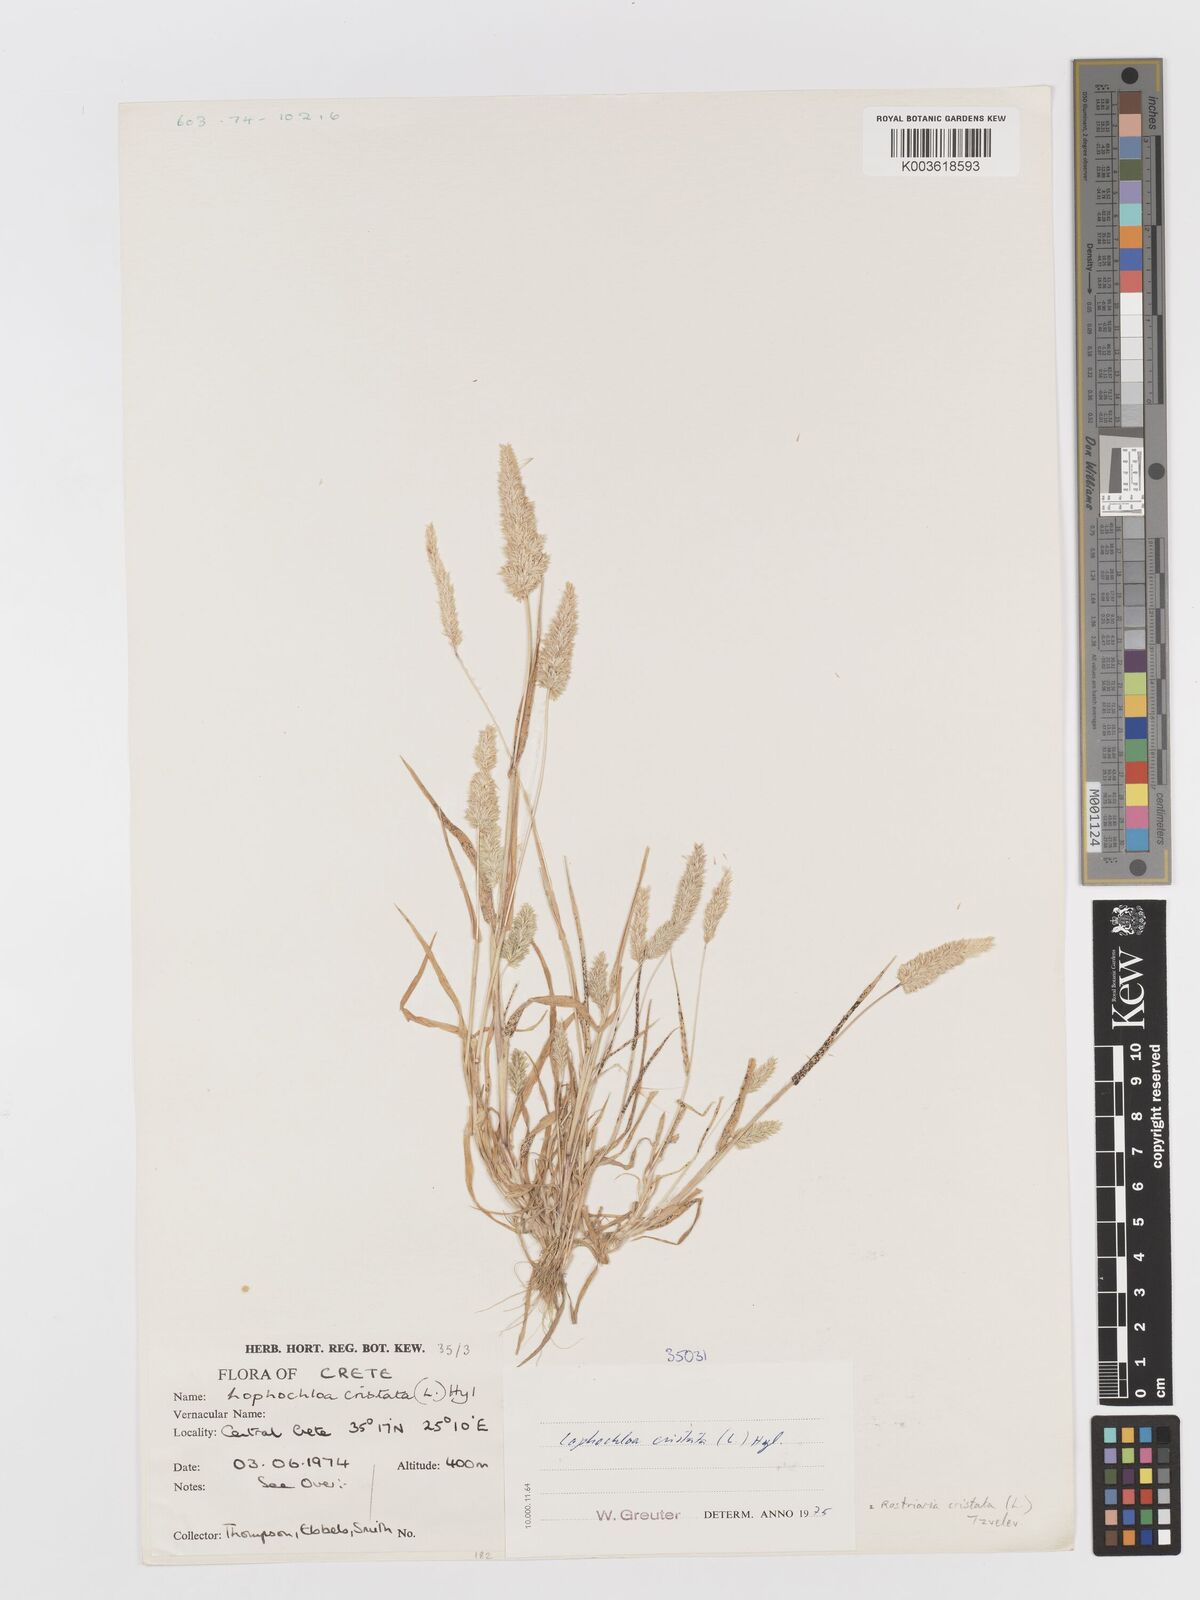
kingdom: Plantae
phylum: Tracheophyta
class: Liliopsida
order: Poales
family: Poaceae
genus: Rostraria
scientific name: Rostraria cristata
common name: Mediterranean hair-grass
